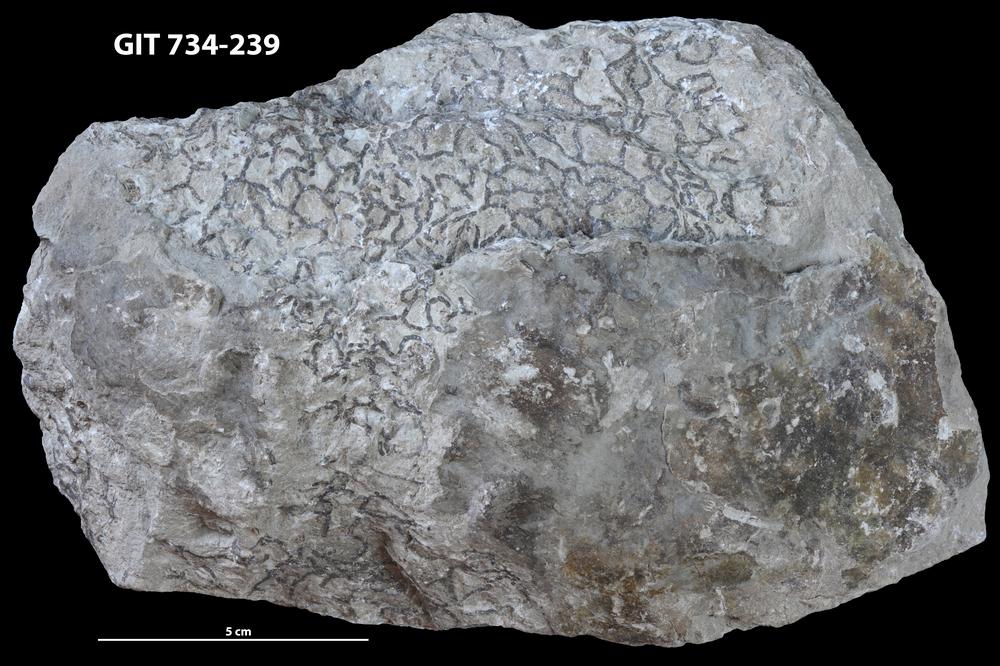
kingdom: Animalia
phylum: Cnidaria
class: Anthozoa
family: Halysitidae
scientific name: Halysitidae
